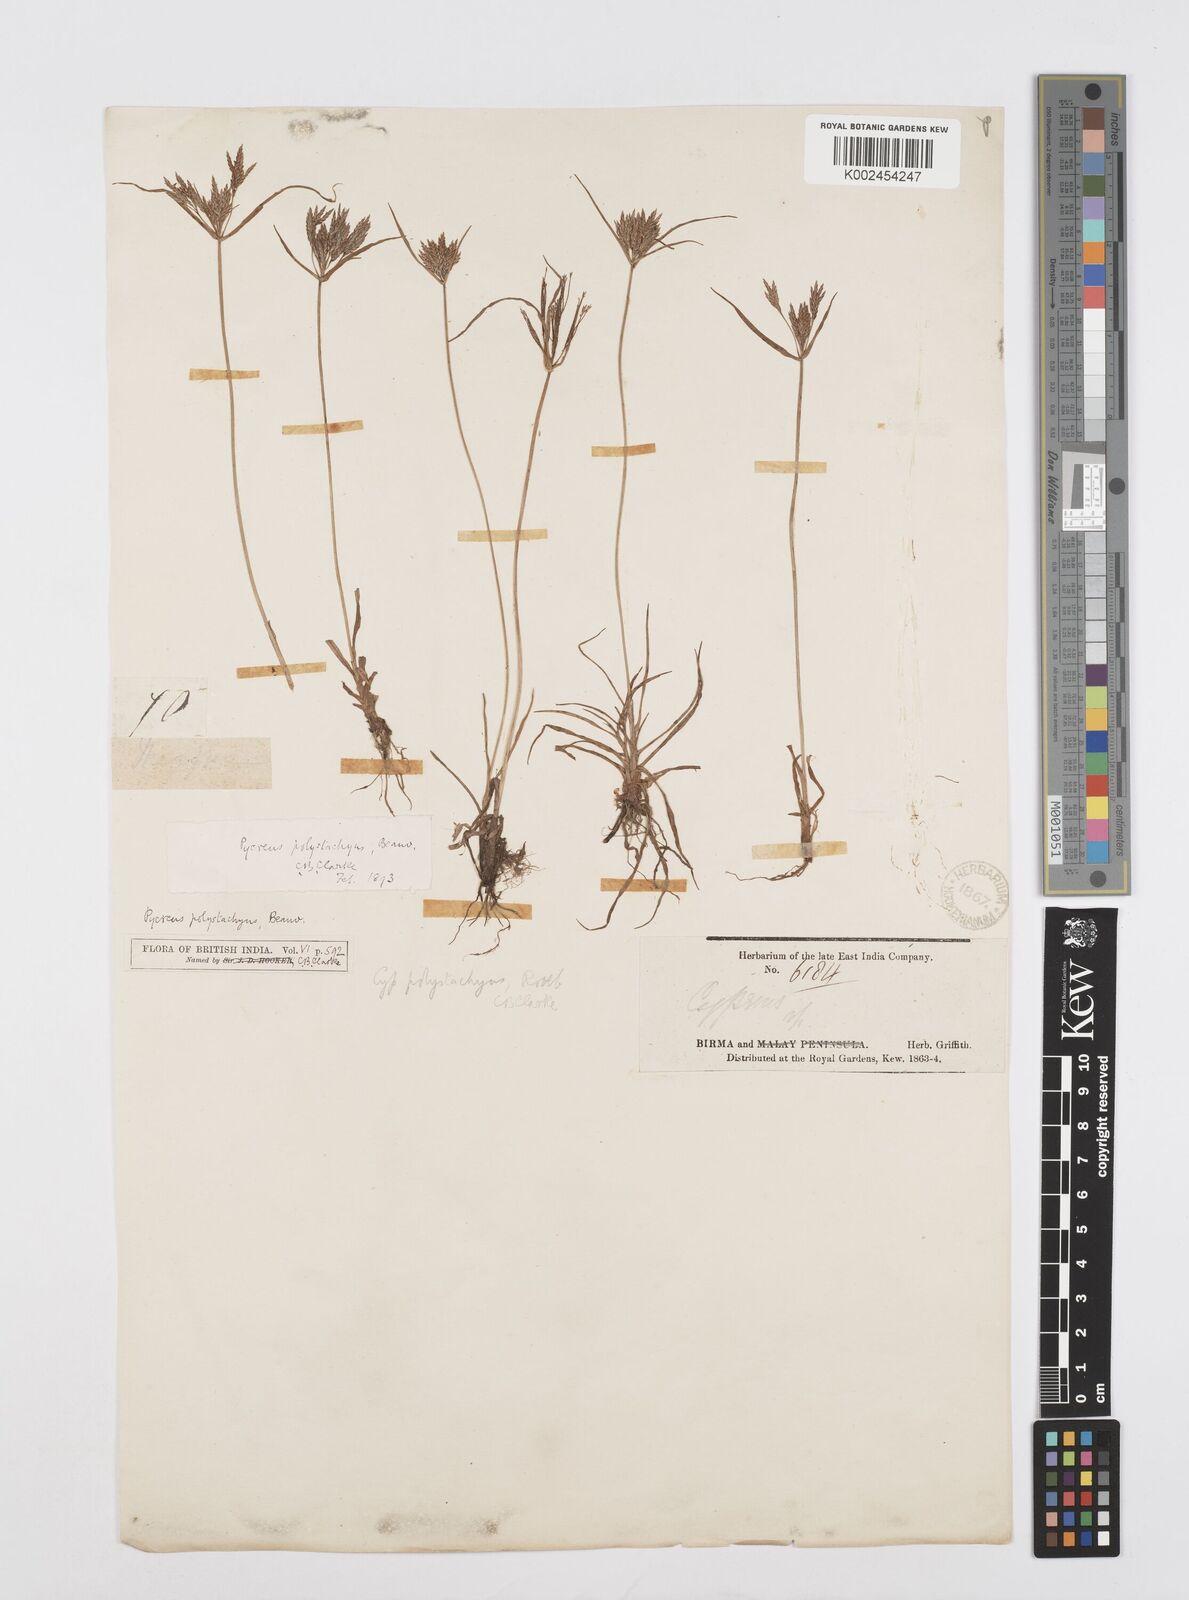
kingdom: Plantae
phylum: Tracheophyta
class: Liliopsida
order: Poales
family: Cyperaceae
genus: Cyperus
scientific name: Cyperus polystachyos
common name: Bunchy flat sedge
